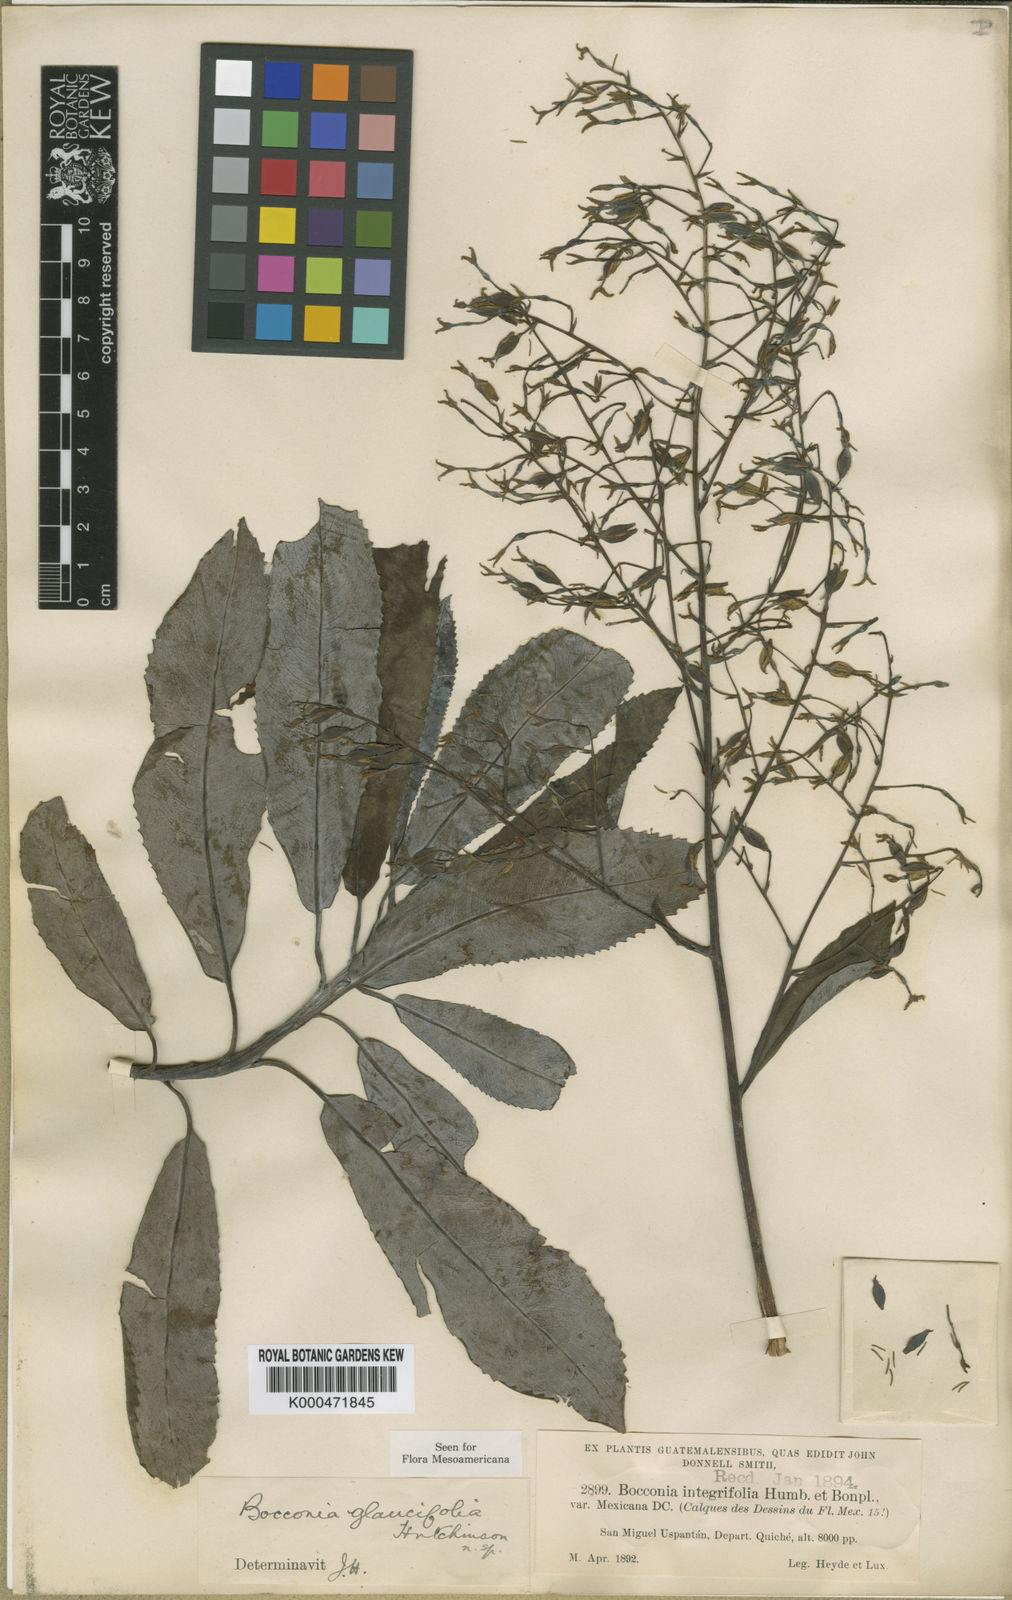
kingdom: Plantae
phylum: Tracheophyta
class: Magnoliopsida
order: Ranunculales
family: Papaveraceae
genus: Bocconia
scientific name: Bocconia glaucifolia
